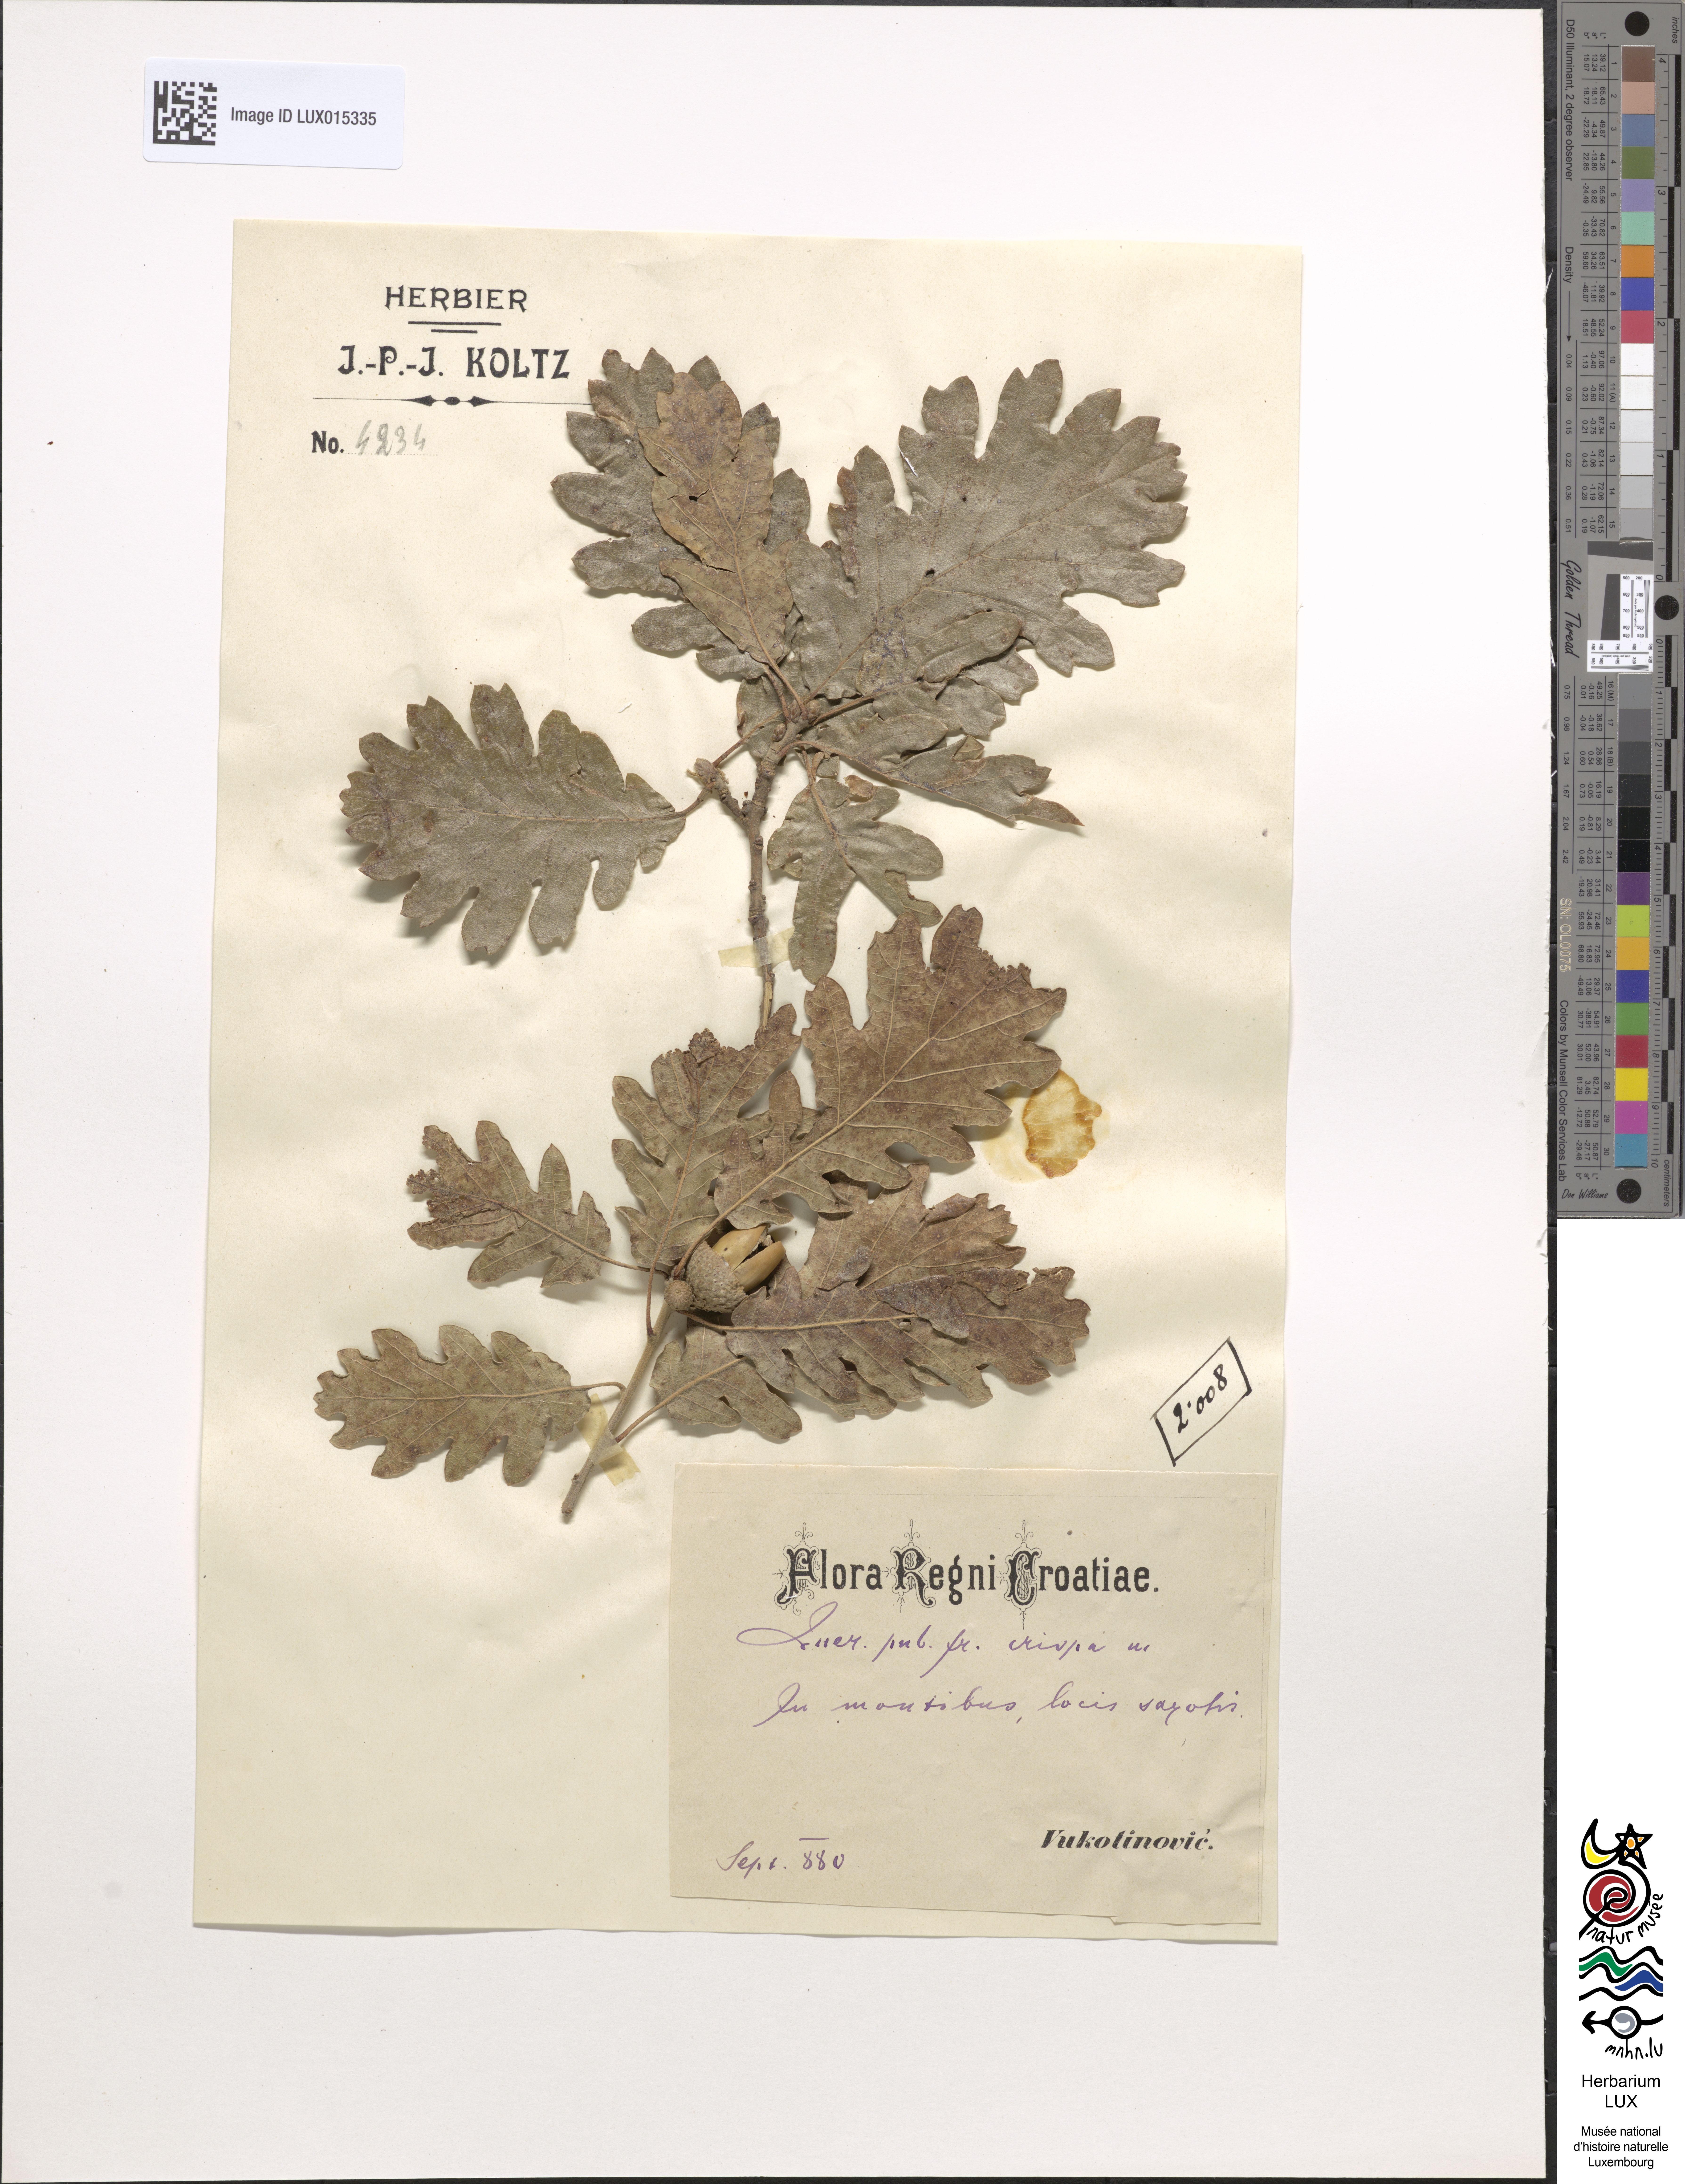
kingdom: Plantae
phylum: Tracheophyta
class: Magnoliopsida
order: Fagales
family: Fagaceae
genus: Quercus
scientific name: Quercus pubescens
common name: Downy oak
